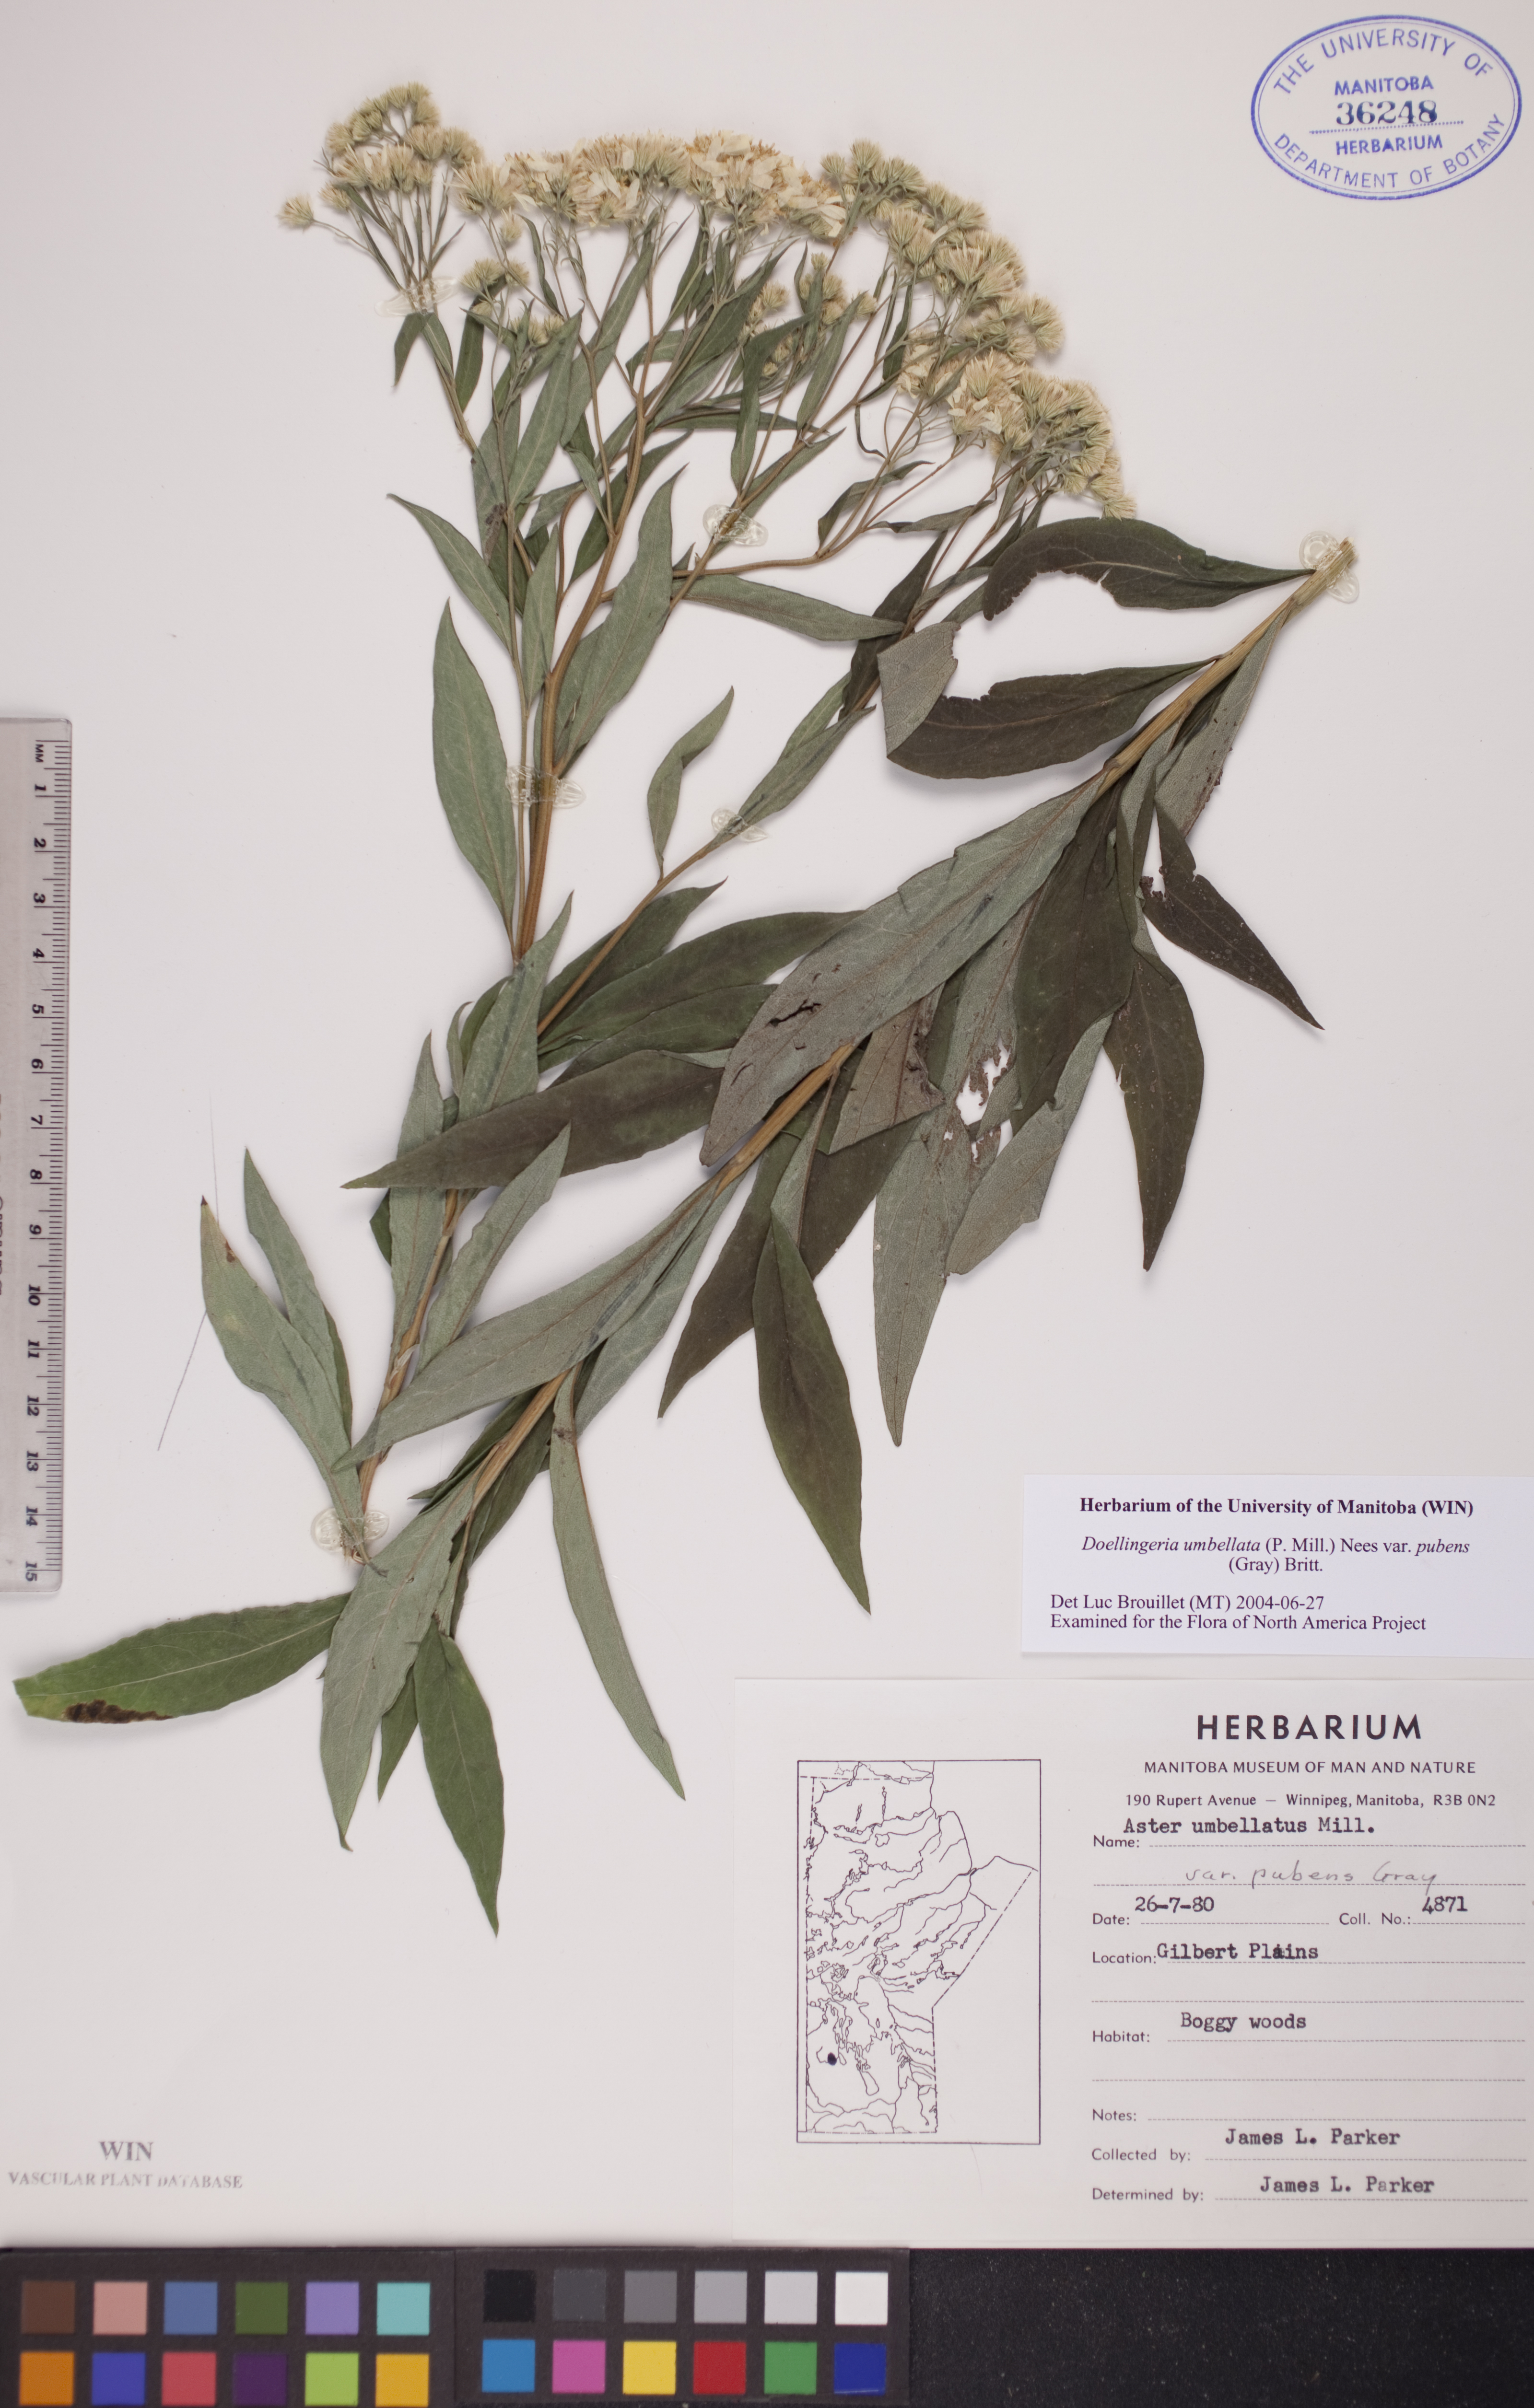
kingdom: Plantae
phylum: Tracheophyta
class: Magnoliopsida
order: Asterales
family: Asteraceae
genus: Doellingeria
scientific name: Doellingeria umbellata
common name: Flat-top white aster
